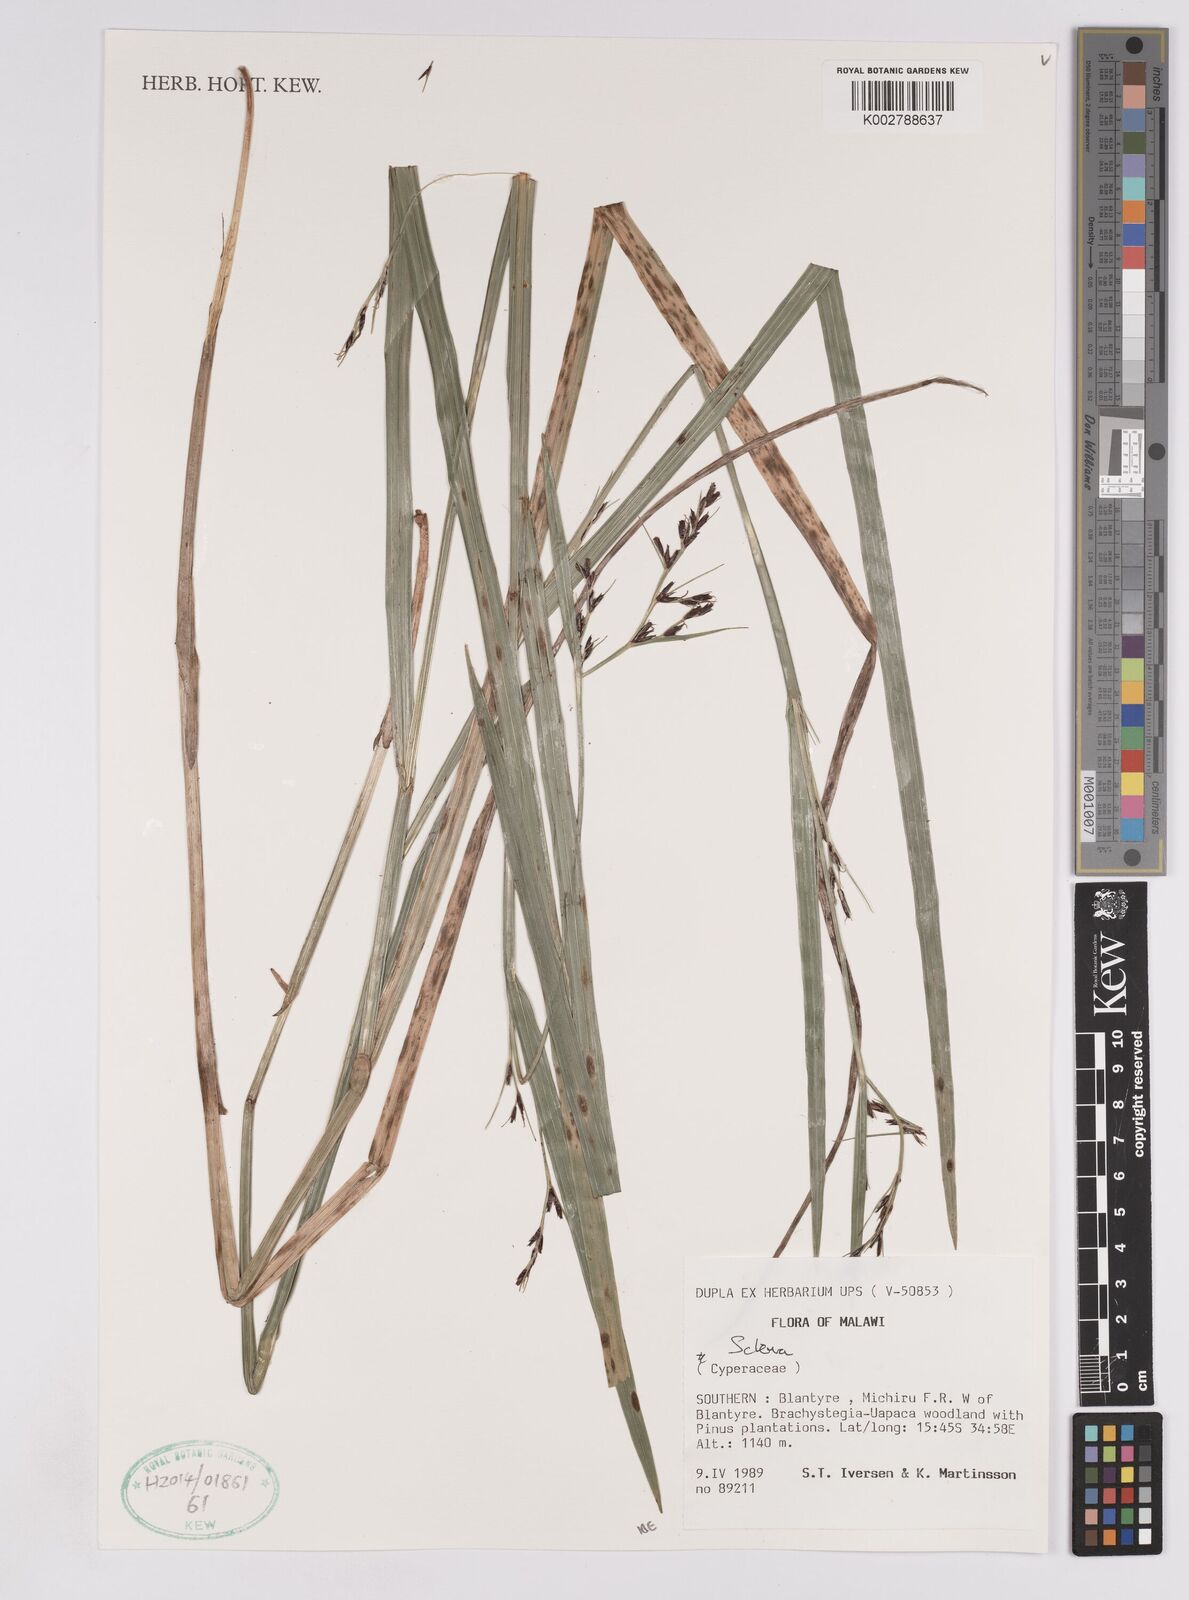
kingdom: Plantae
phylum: Tracheophyta
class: Liliopsida
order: Poales
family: Cyperaceae
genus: Scleria
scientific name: Scleria
